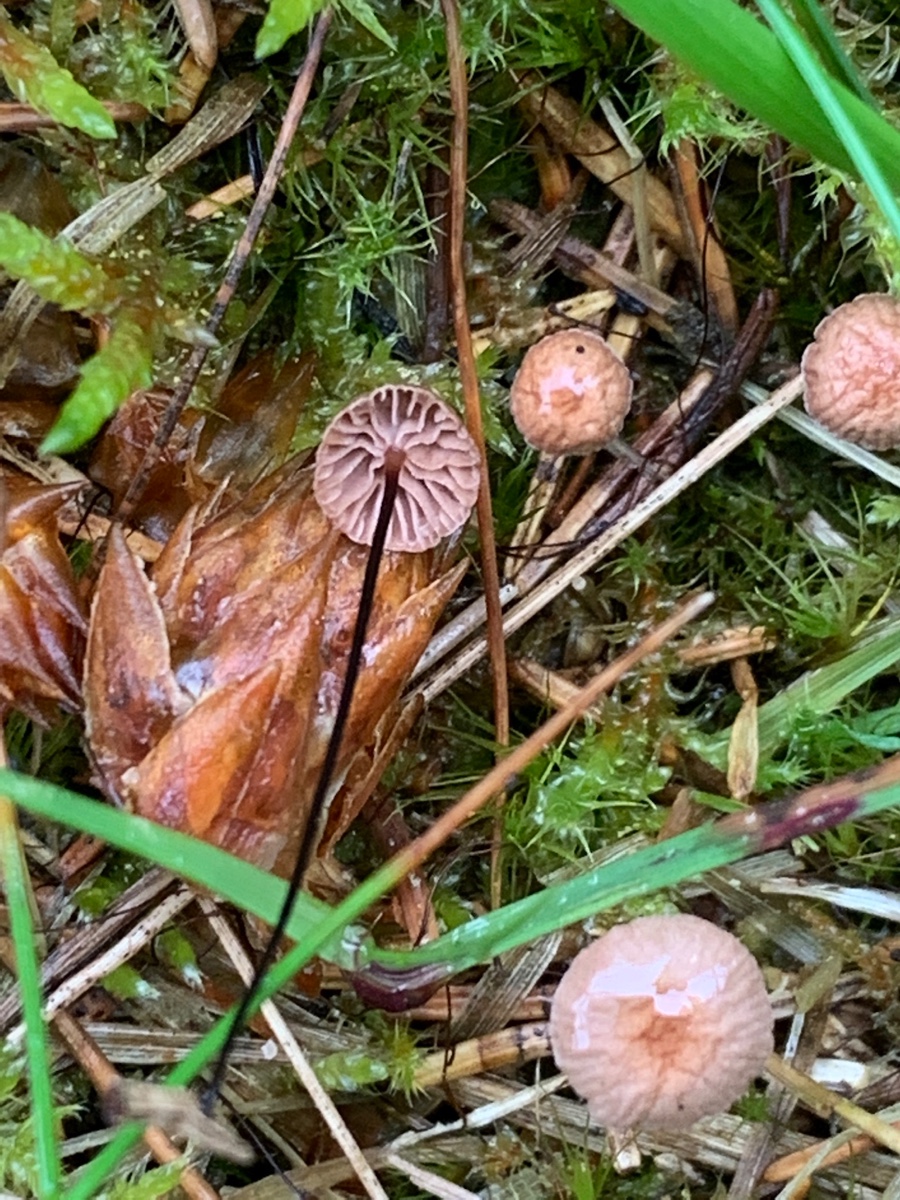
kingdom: Fungi
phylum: Basidiomycota
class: Agaricomycetes
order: Agaricales
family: Omphalotaceae
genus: Gymnopus
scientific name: Gymnopus androsaceus
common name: trådstokket fladhat
